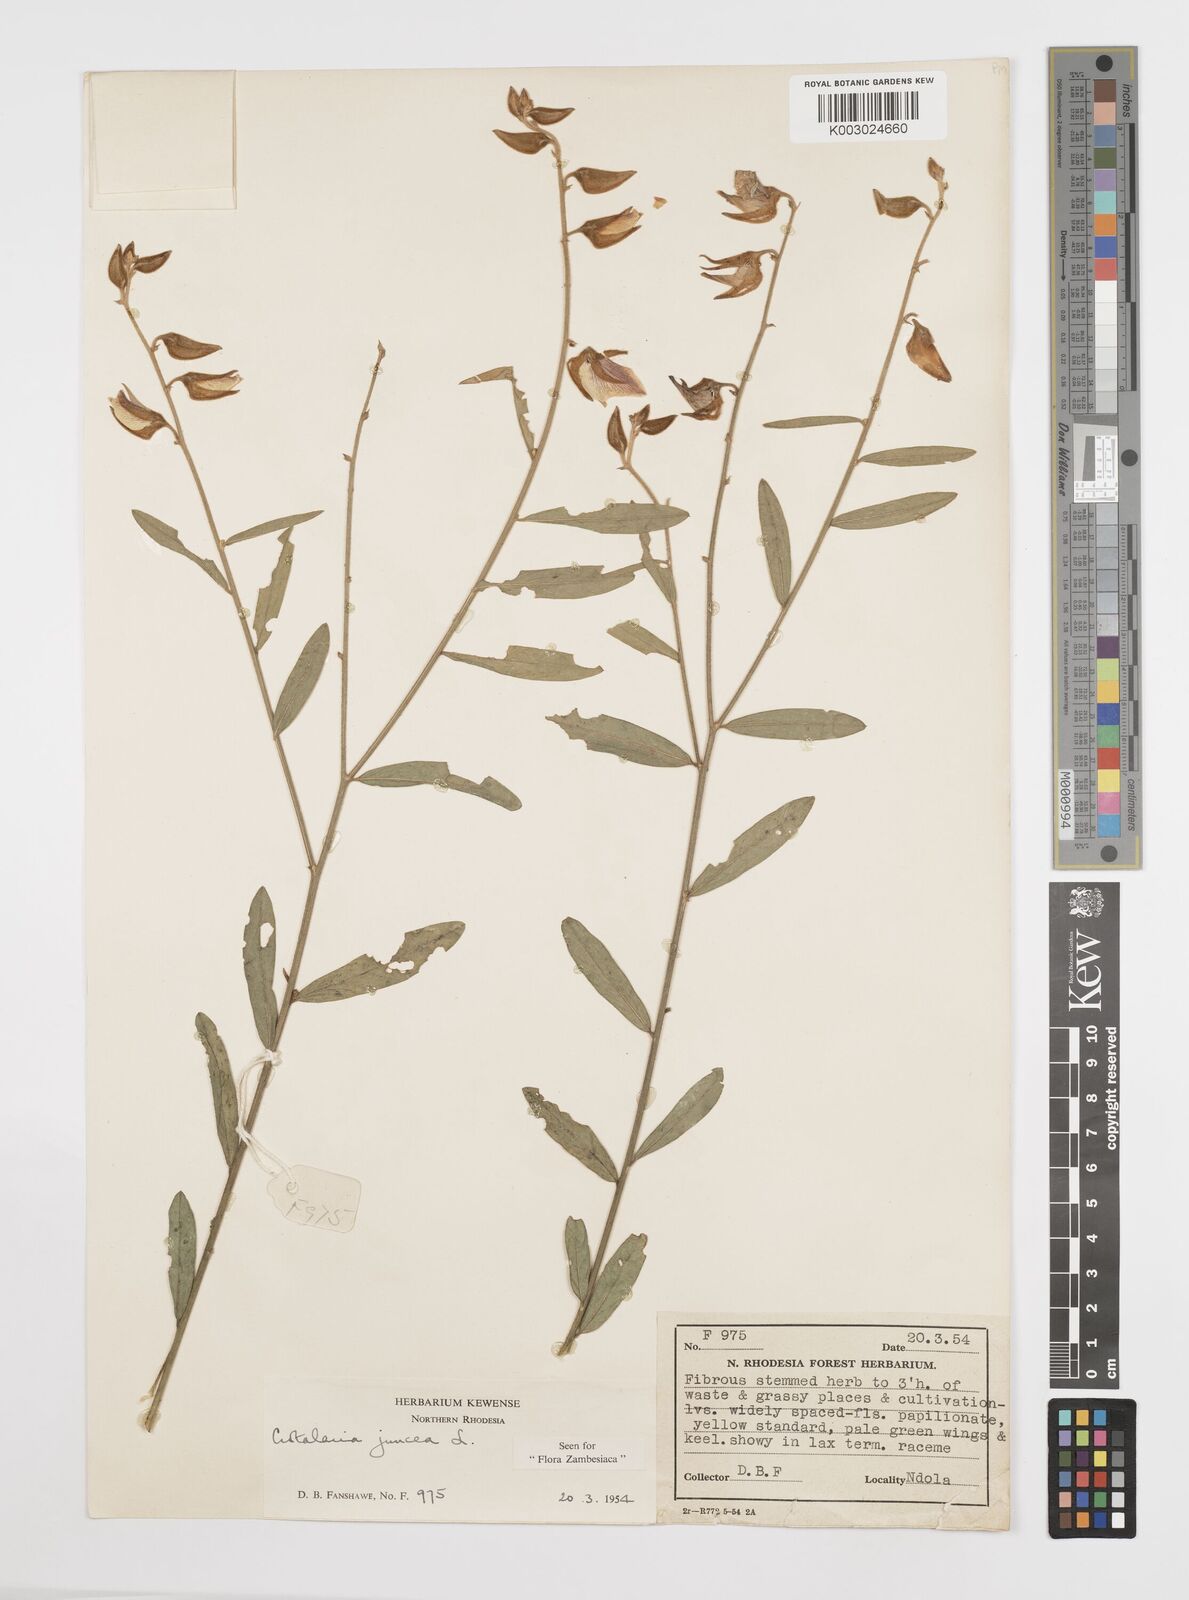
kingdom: Plantae
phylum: Tracheophyta
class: Magnoliopsida
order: Fabales
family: Fabaceae
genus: Crotalaria
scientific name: Crotalaria juncea
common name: Sunn hemp
